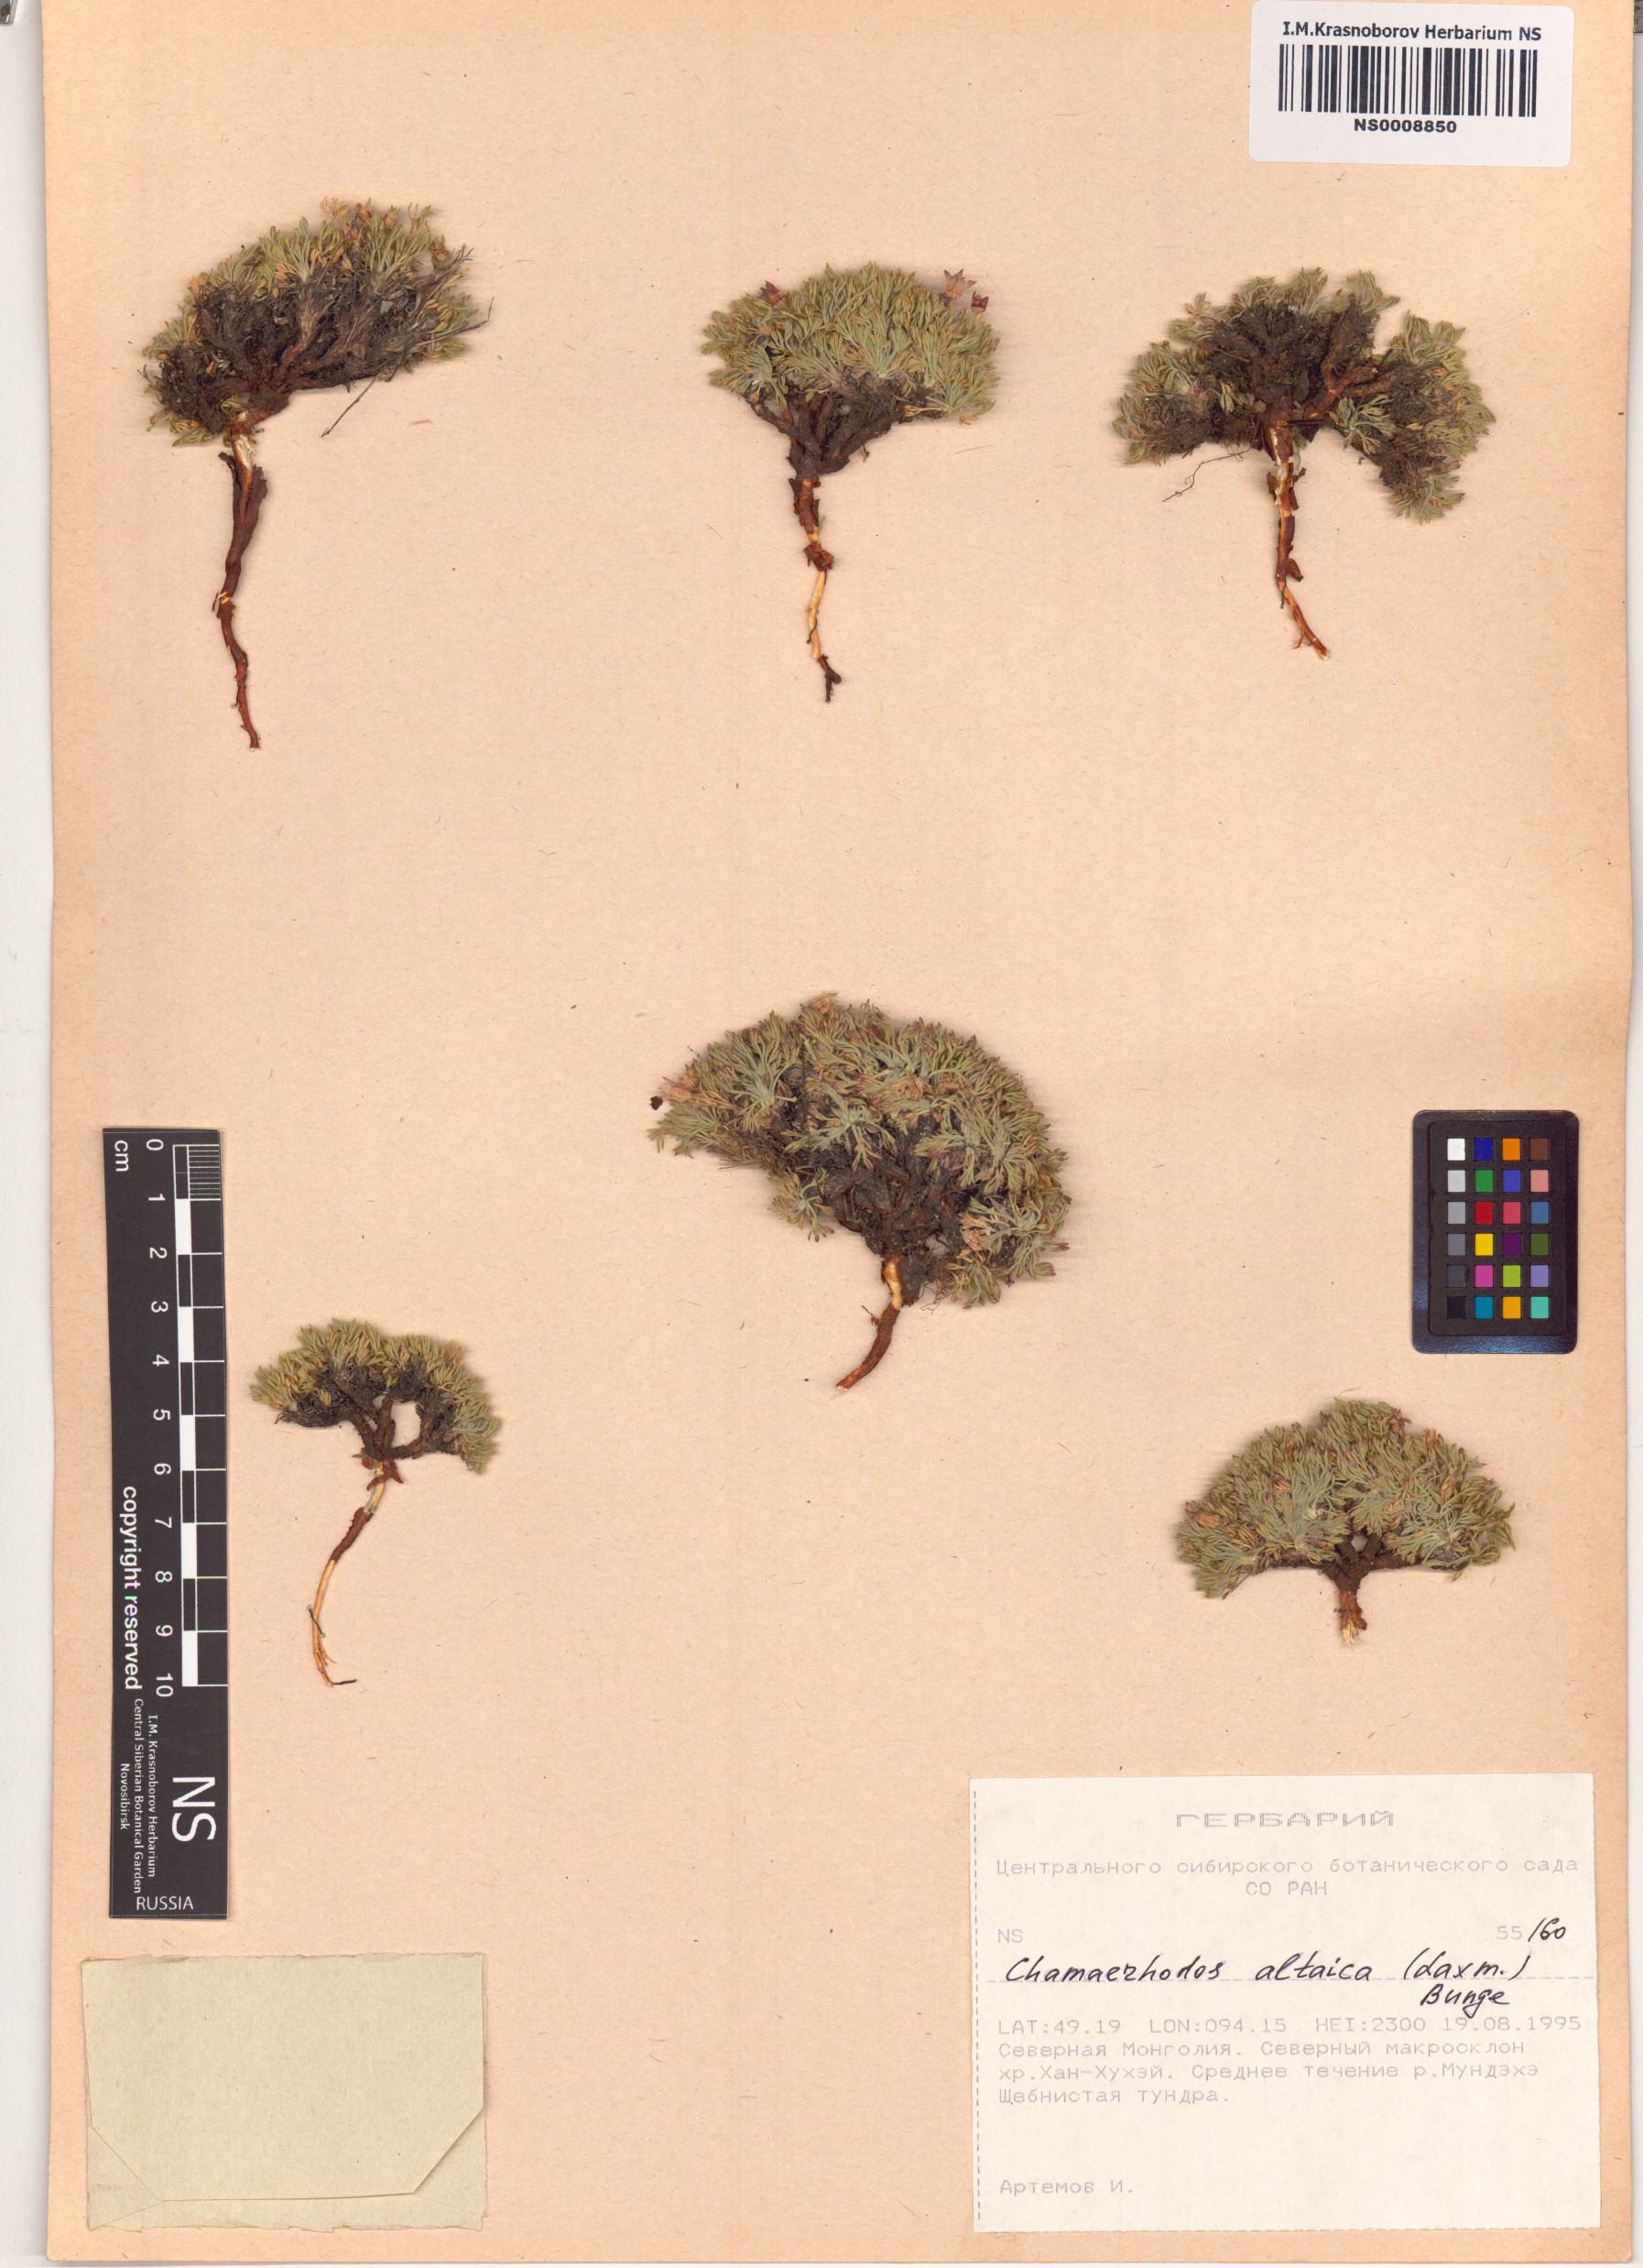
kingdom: Plantae
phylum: Tracheophyta
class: Magnoliopsida
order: Rosales
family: Rosaceae
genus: Chamaerhodos
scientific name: Chamaerhodos altaica
